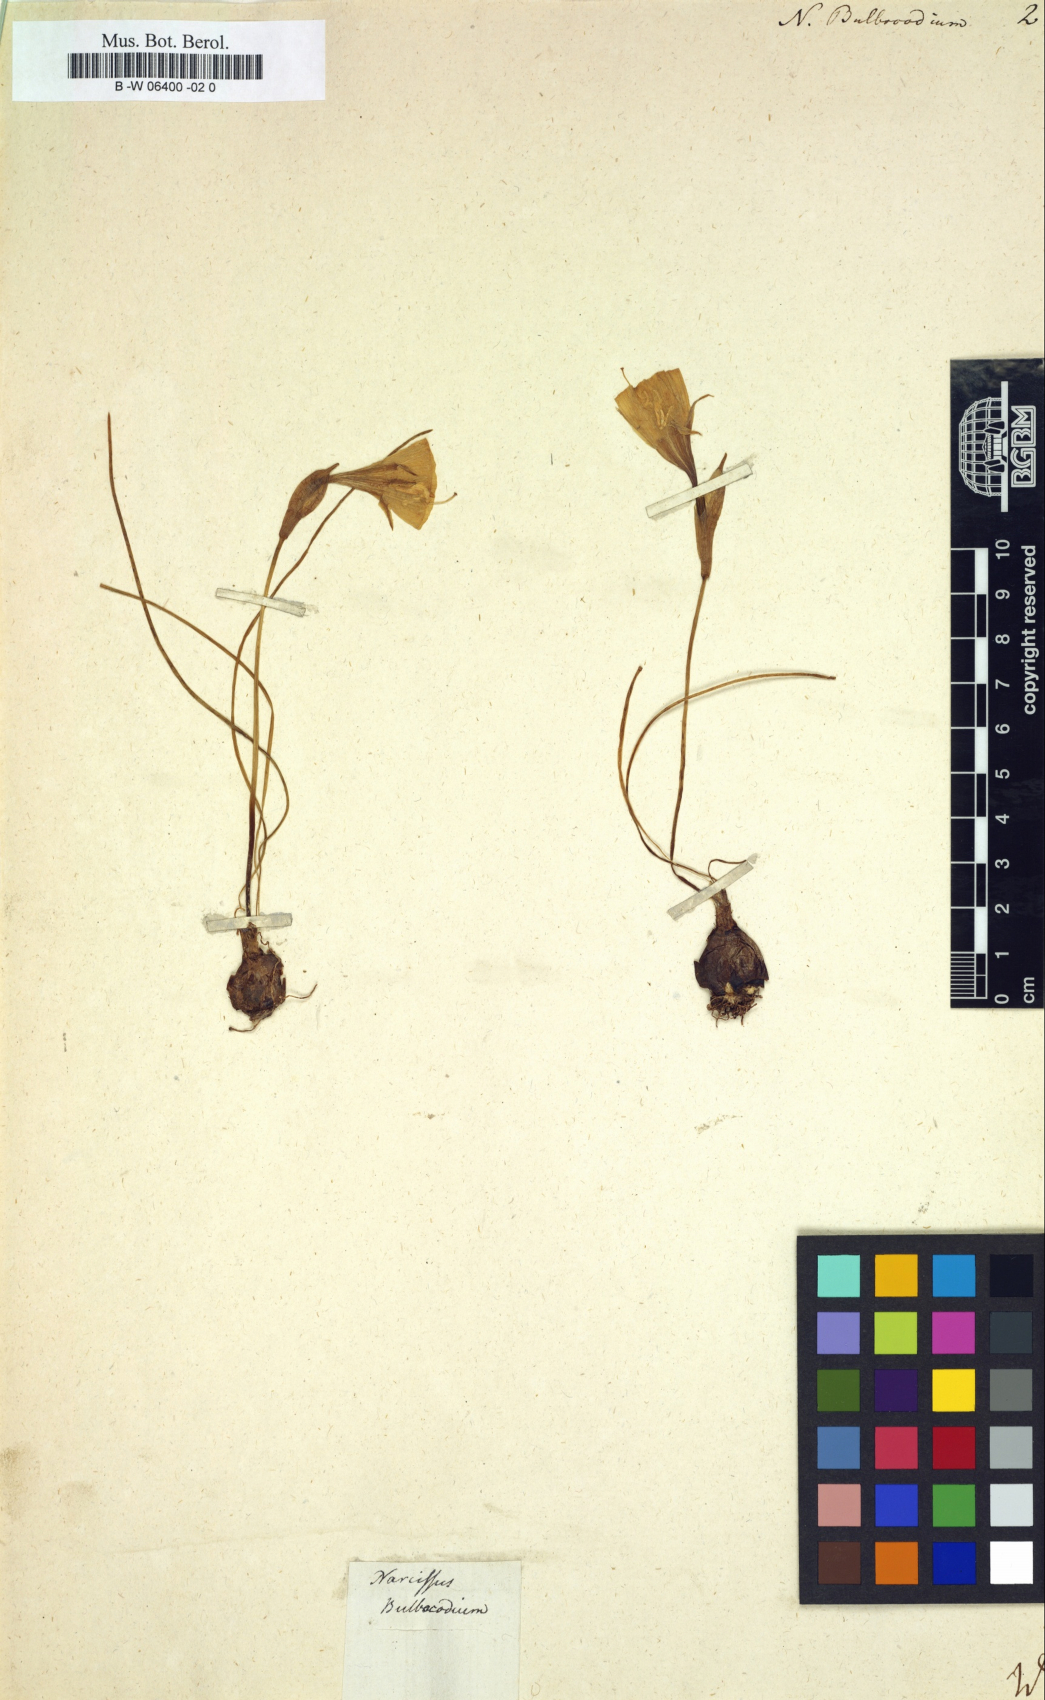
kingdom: Plantae
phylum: Tracheophyta
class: Liliopsida
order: Asparagales
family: Amaryllidaceae
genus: Narcissus
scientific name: Narcissus bulbocodium
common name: Hoop-petticoat daffodil
